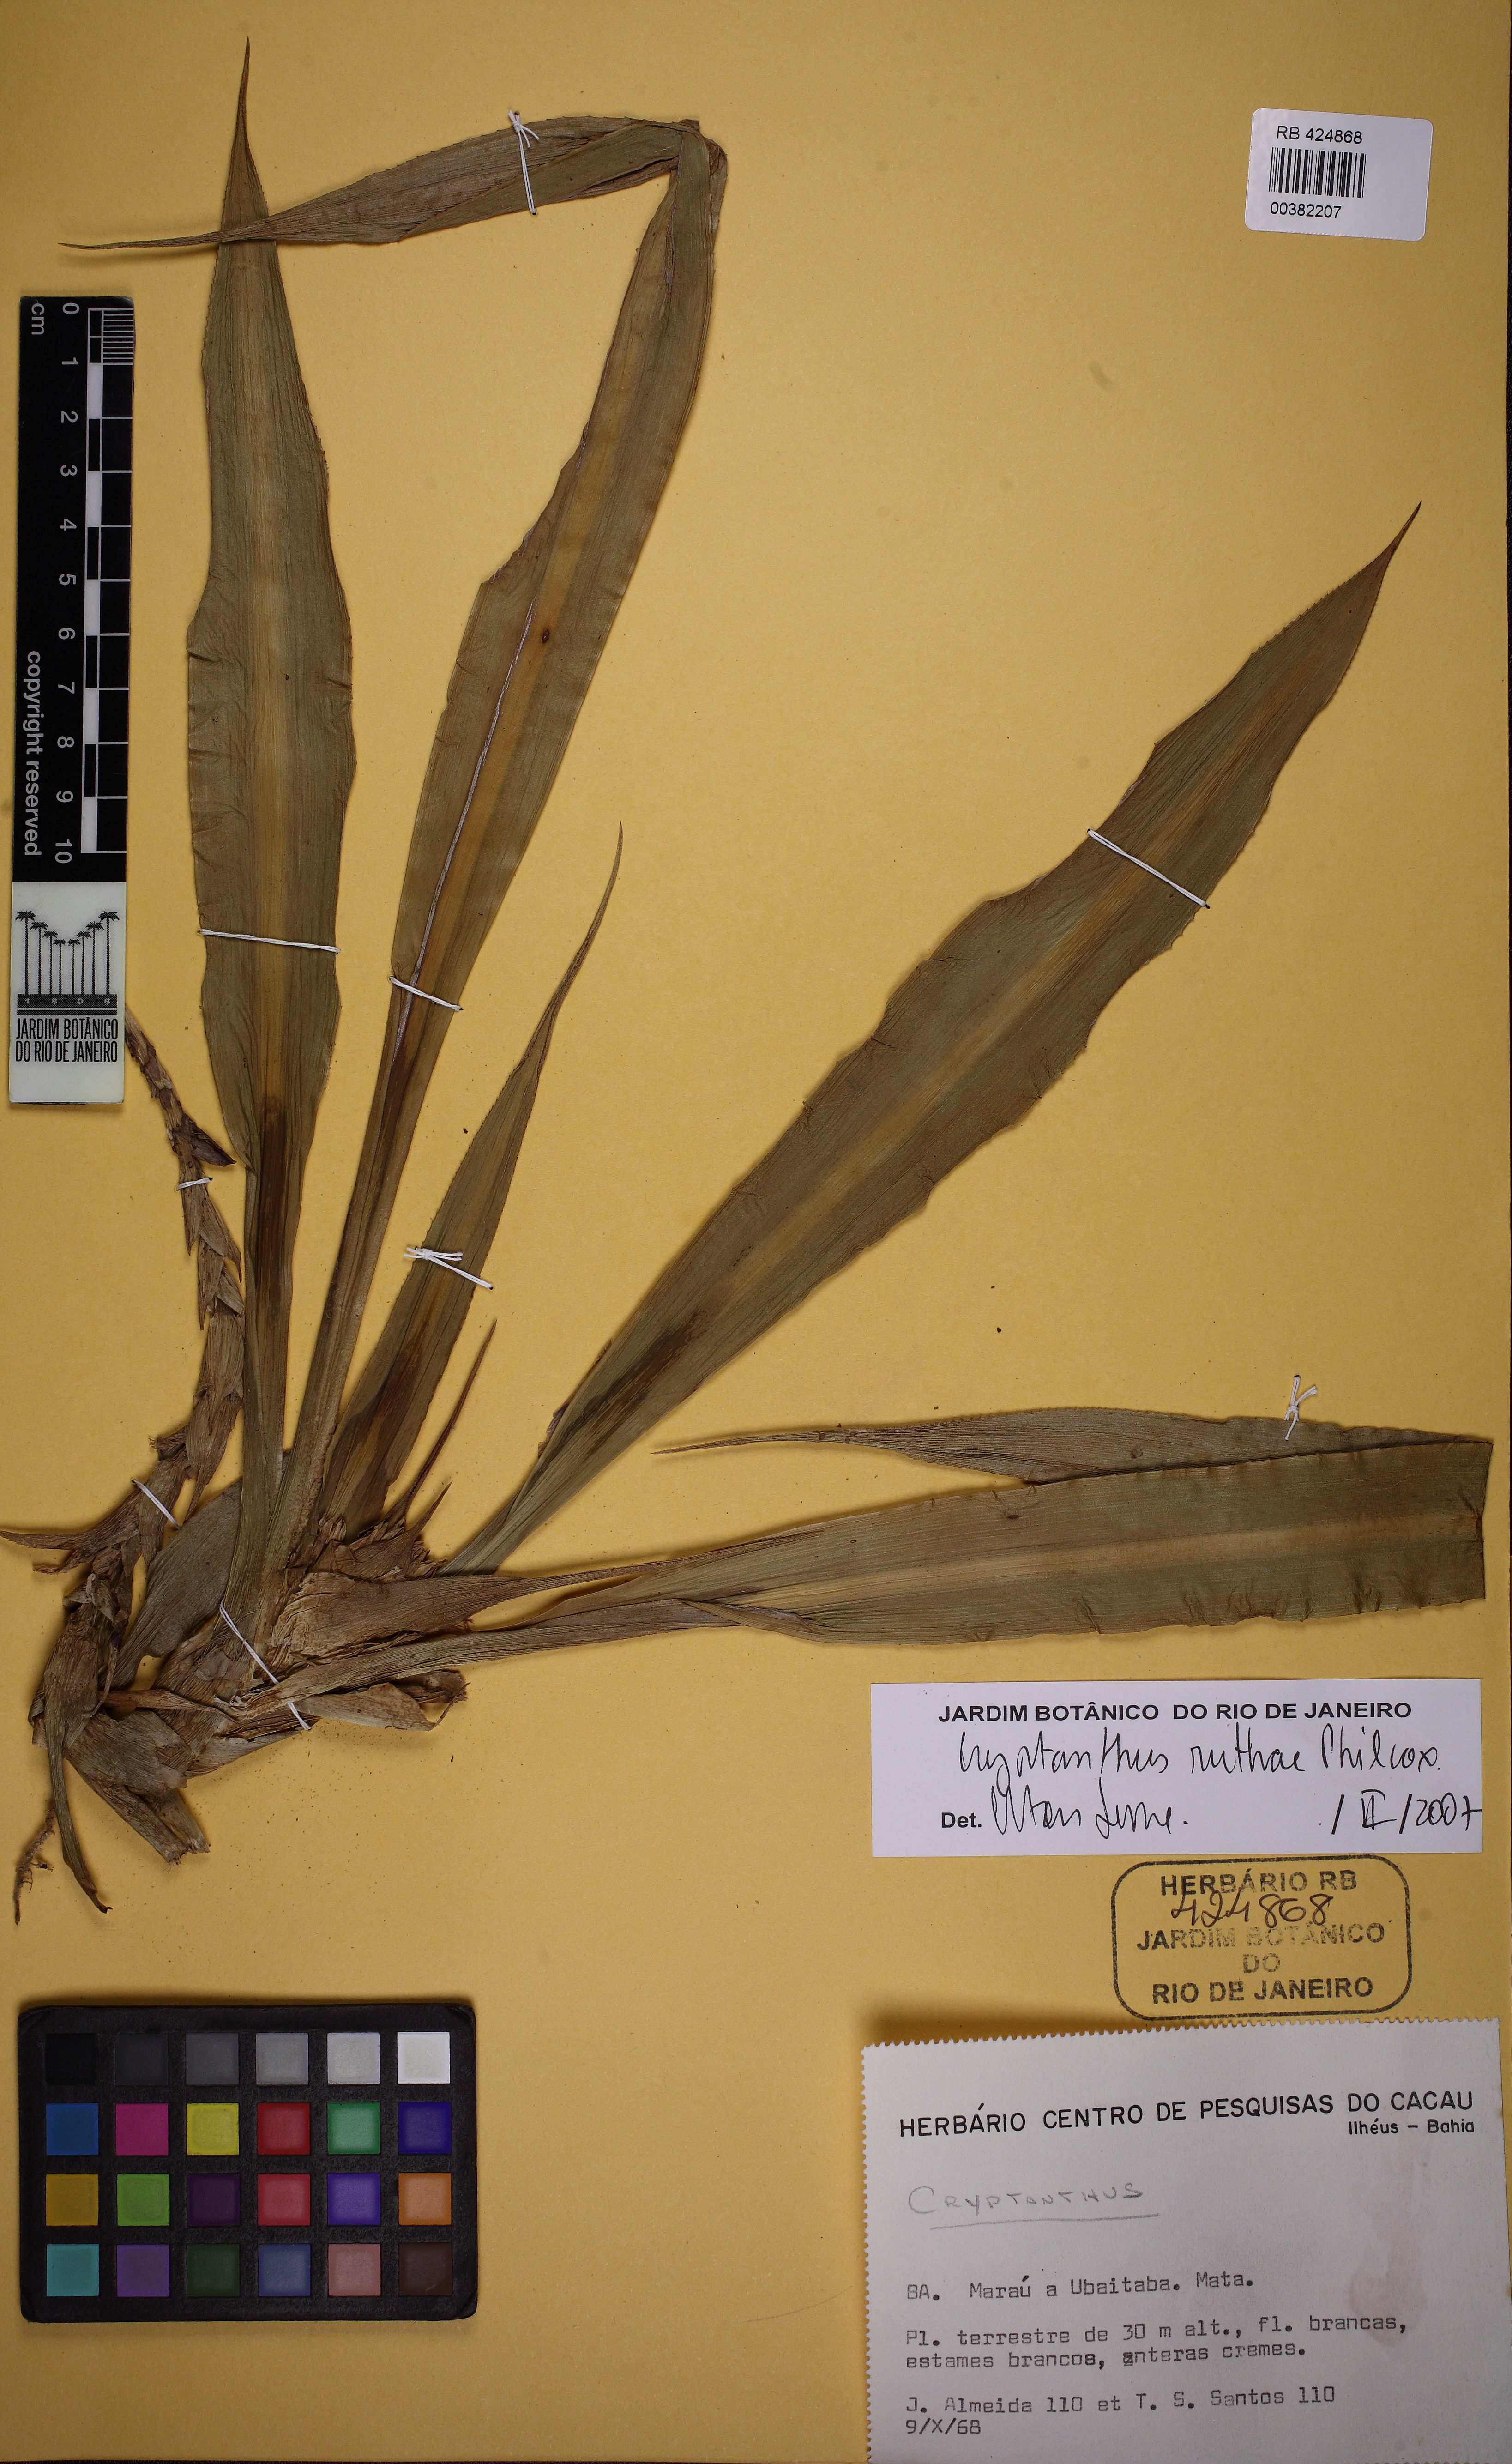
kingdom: Plantae
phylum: Tracheophyta
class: Liliopsida
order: Poales
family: Bromeliaceae
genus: Cryptanthus
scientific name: Cryptanthus pseudopetiolatus
